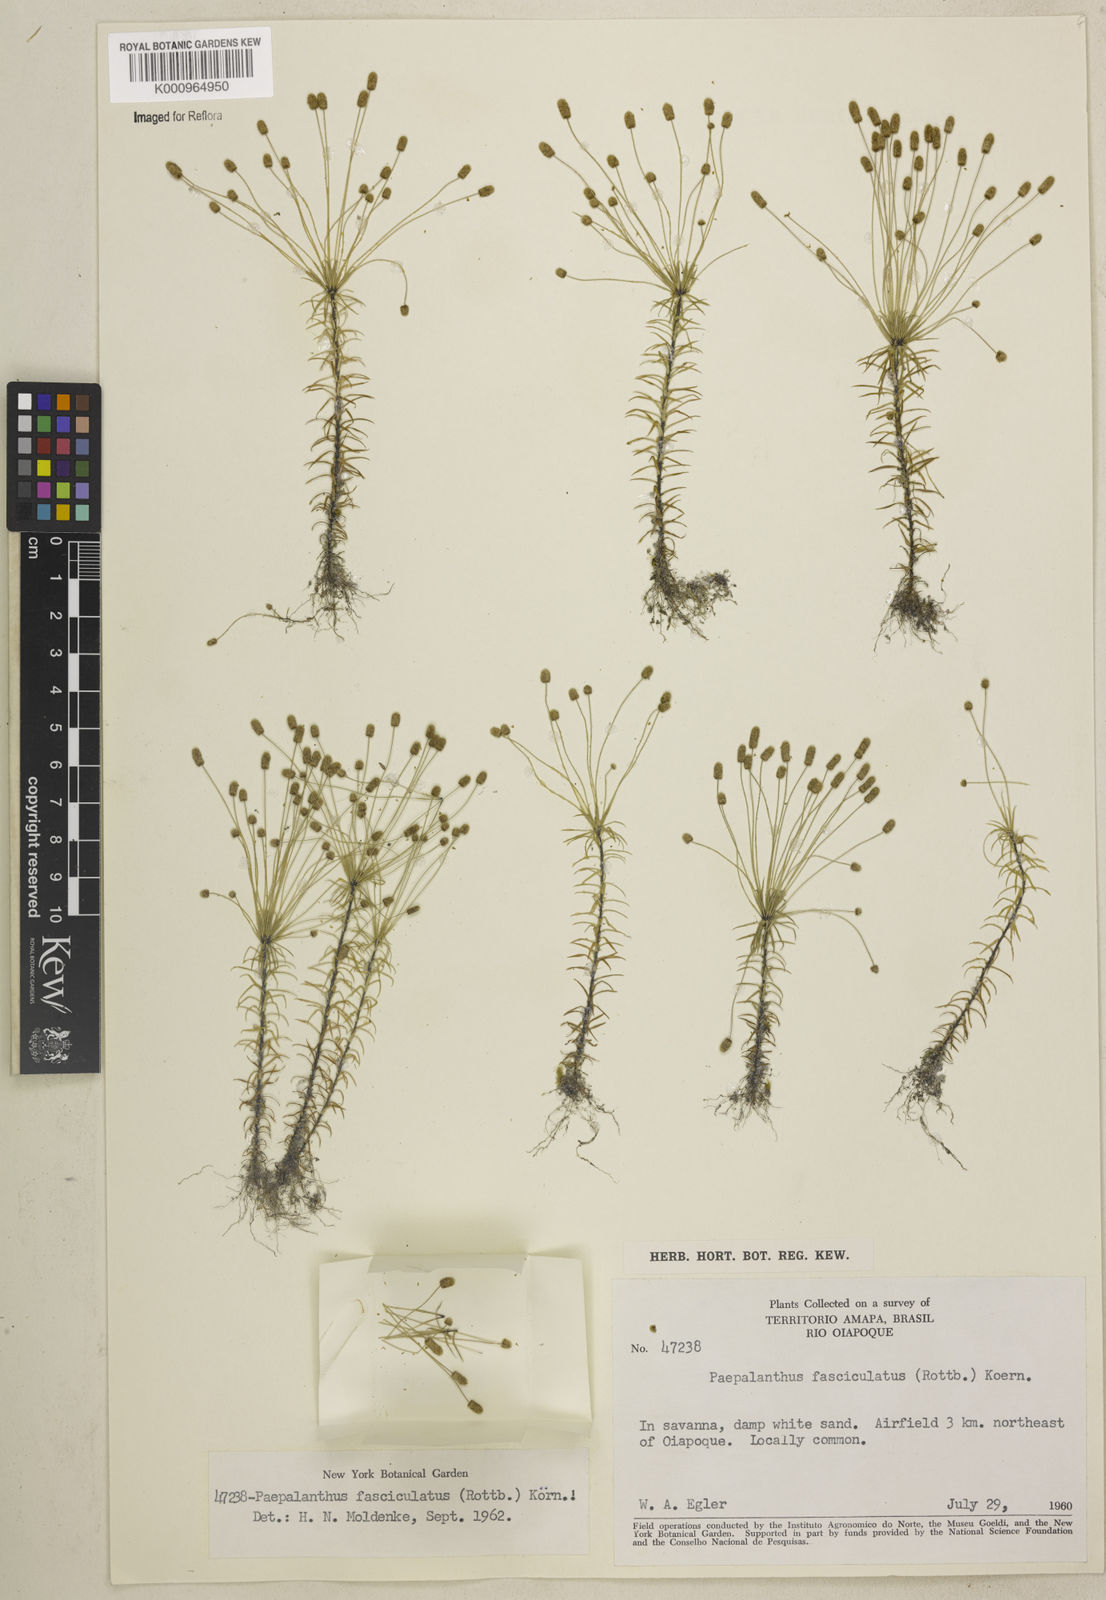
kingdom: Plantae
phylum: Tracheophyta
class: Liliopsida
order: Poales
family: Eriocaulaceae
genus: Paepalanthus
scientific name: Paepalanthus fasciculatus
